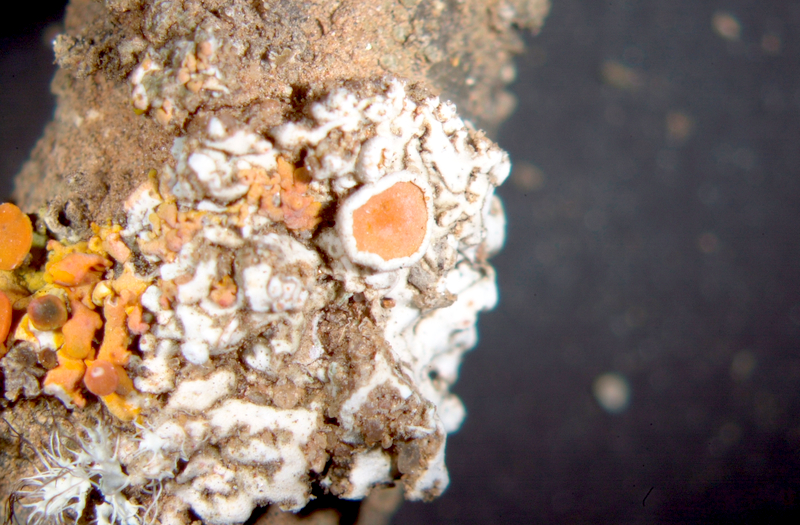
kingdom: Fungi
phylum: Ascomycota
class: Lecanoromycetes
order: Teloschistales
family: Teloschistaceae
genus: Niorma
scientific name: Niorma chrysophthalma
